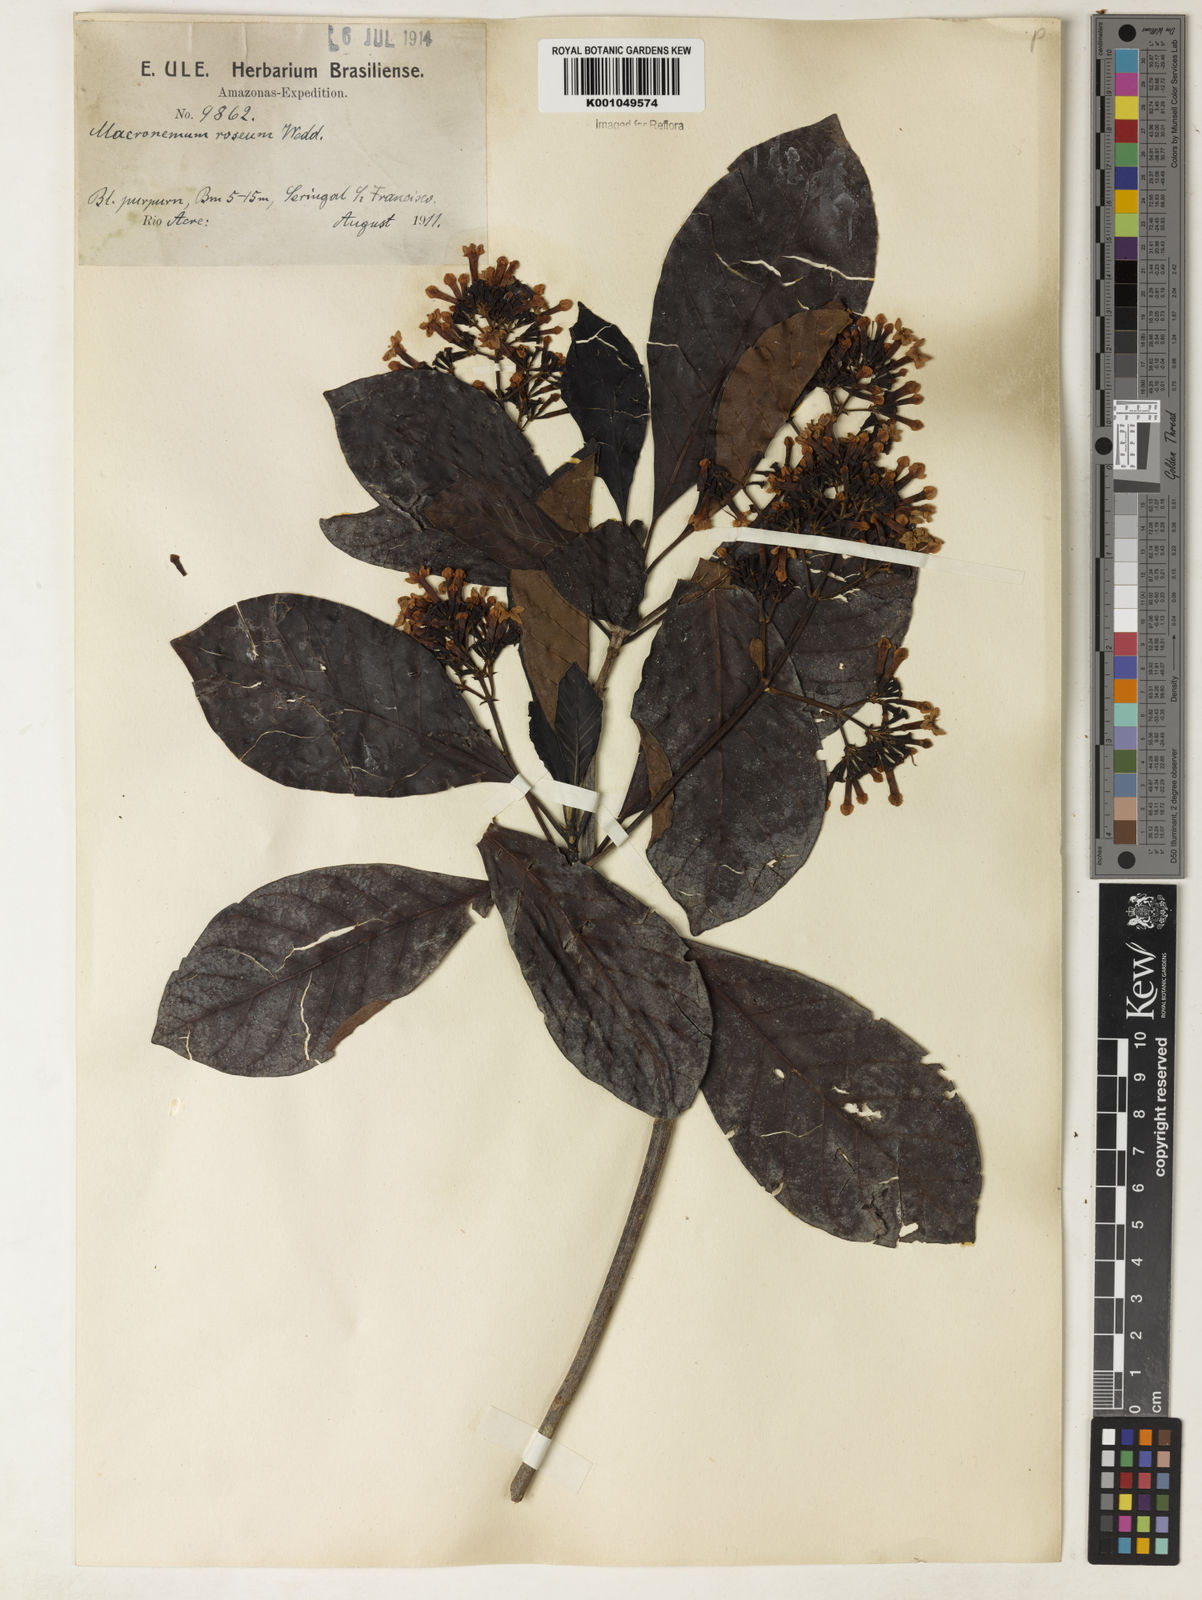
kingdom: Plantae
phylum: Tracheophyta
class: Magnoliopsida
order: Gentianales
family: Rubiaceae
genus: Macrocnemum
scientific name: Macrocnemum roseum
